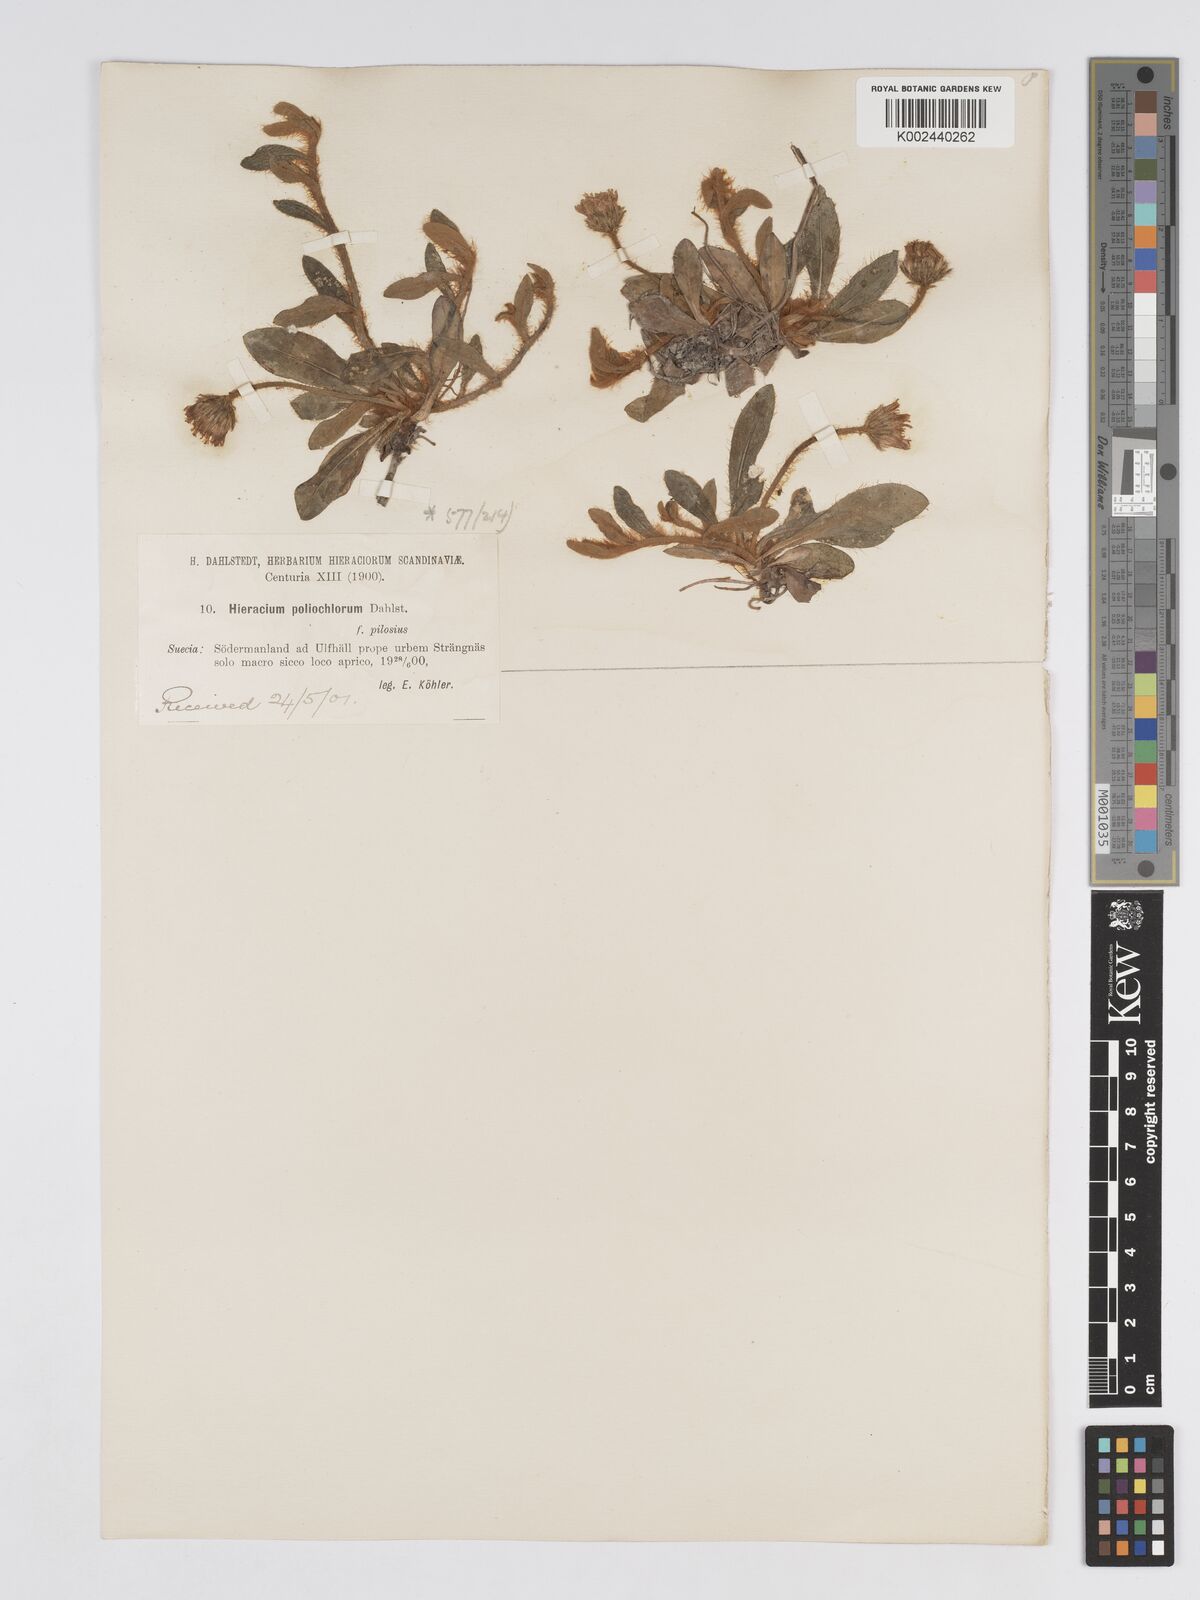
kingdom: Plantae
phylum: Tracheophyta
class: Magnoliopsida
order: Asterales
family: Asteraceae
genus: Pilosella
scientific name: Pilosella officinarum
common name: Mouse-ear hawkweed
